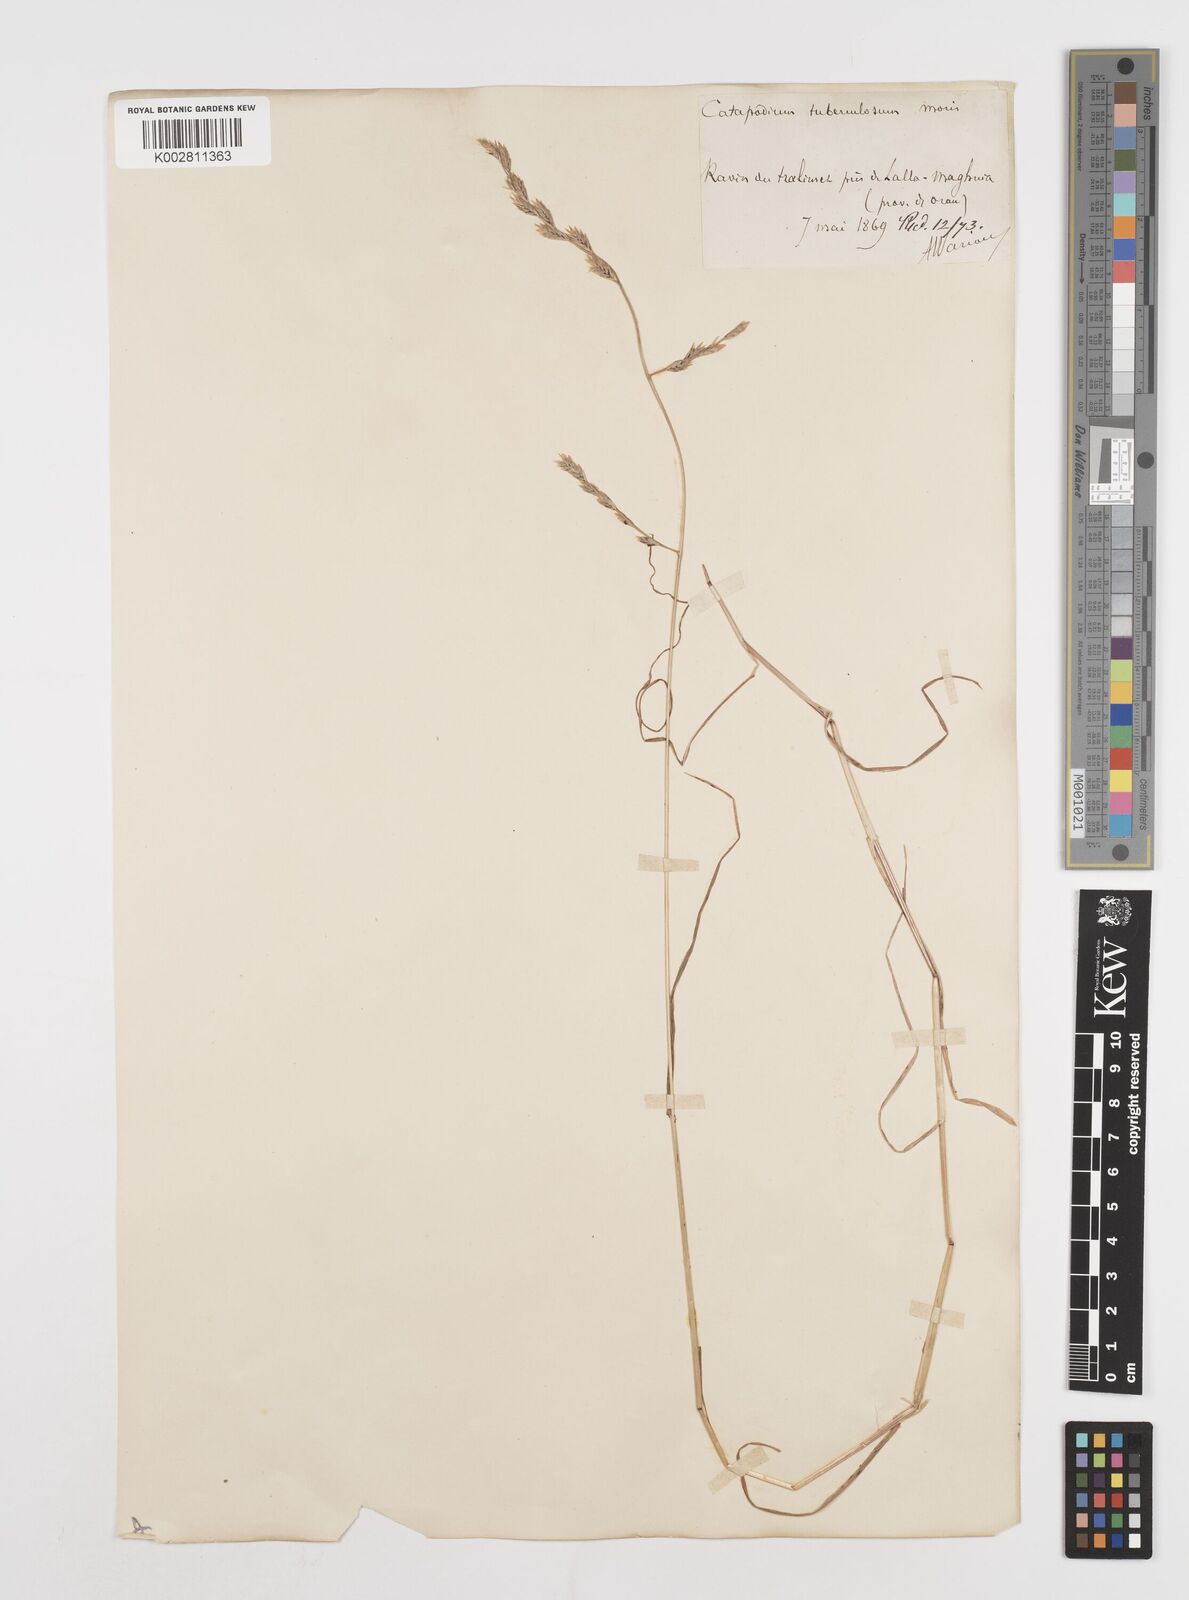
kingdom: Plantae
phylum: Tracheophyta
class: Liliopsida
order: Poales
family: Poaceae
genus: Castellia
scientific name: Castellia tuberculosa
